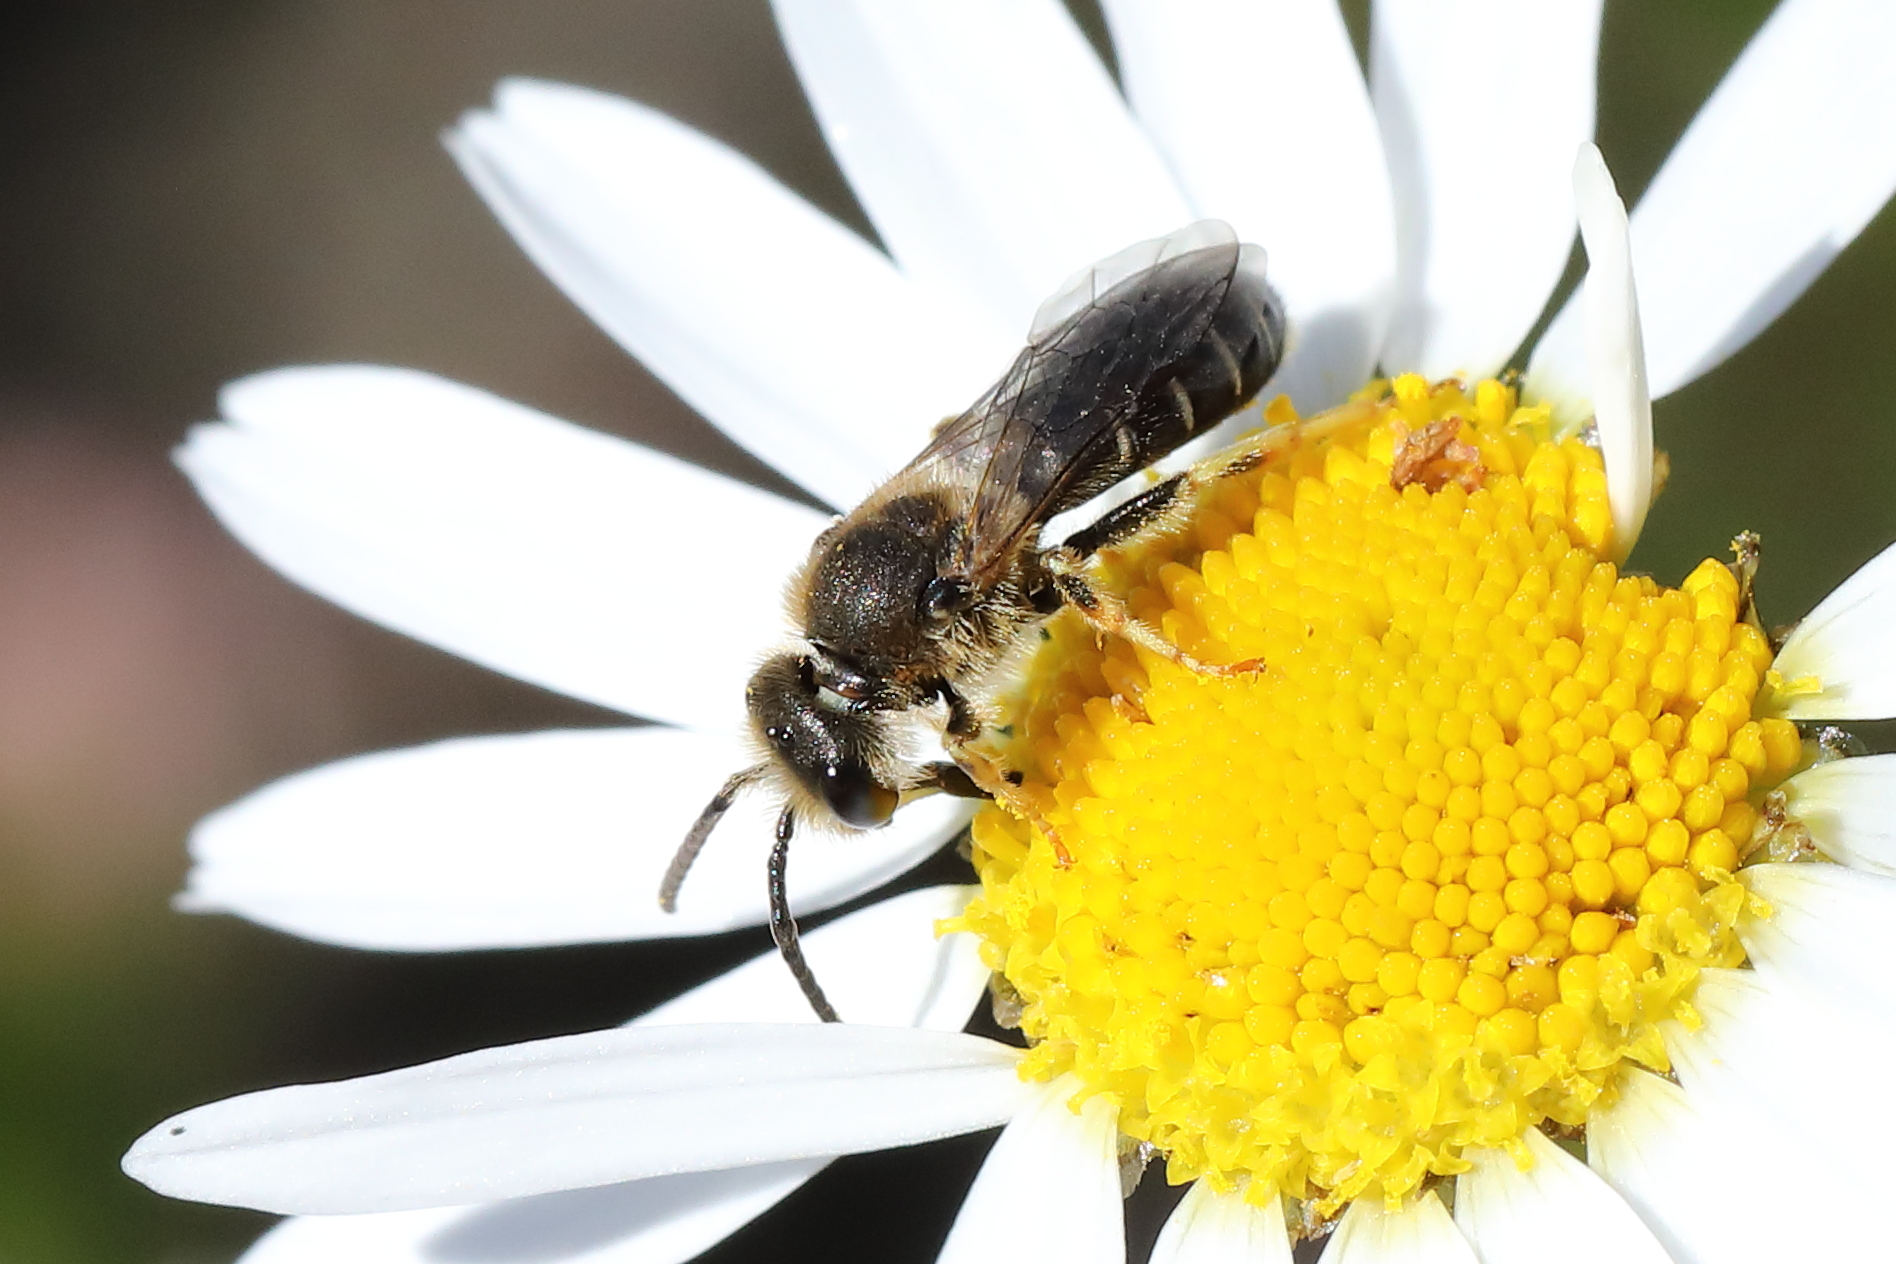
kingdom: Animalia
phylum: Arthropoda
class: Insecta
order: Hymenoptera
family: Halictidae
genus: Halictus
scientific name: Halictus rubicundus
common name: Orange-legged furrow bee
